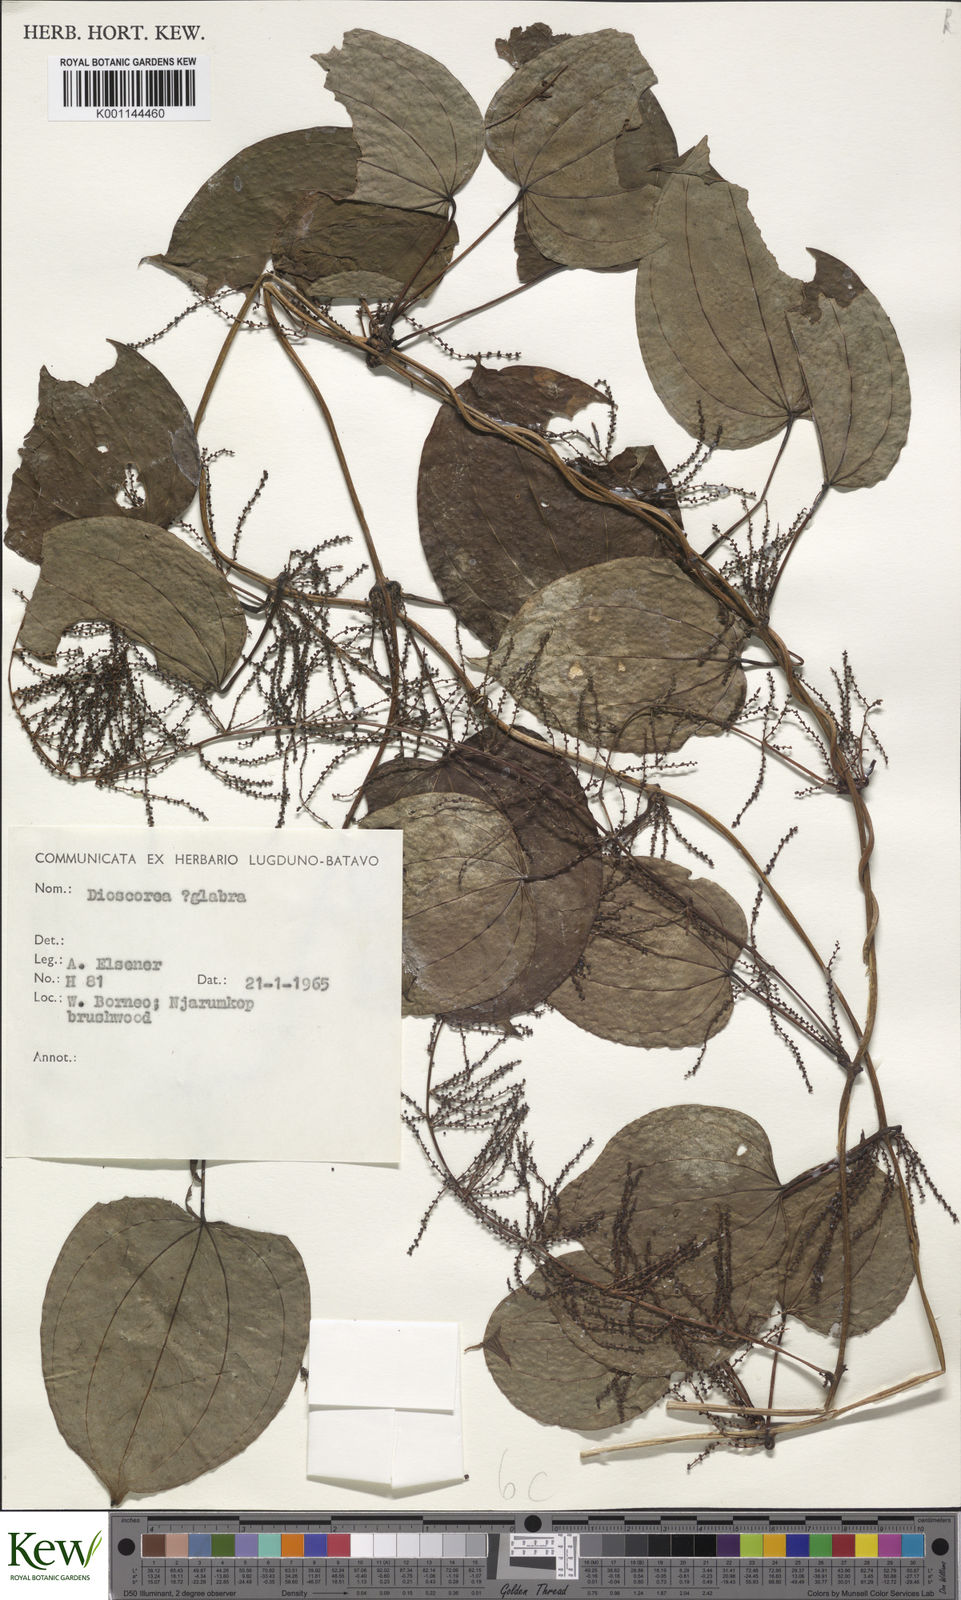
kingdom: Plantae
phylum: Tracheophyta
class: Liliopsida
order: Dioscoreales
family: Dioscoreaceae
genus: Dioscorea
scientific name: Dioscorea glabra
